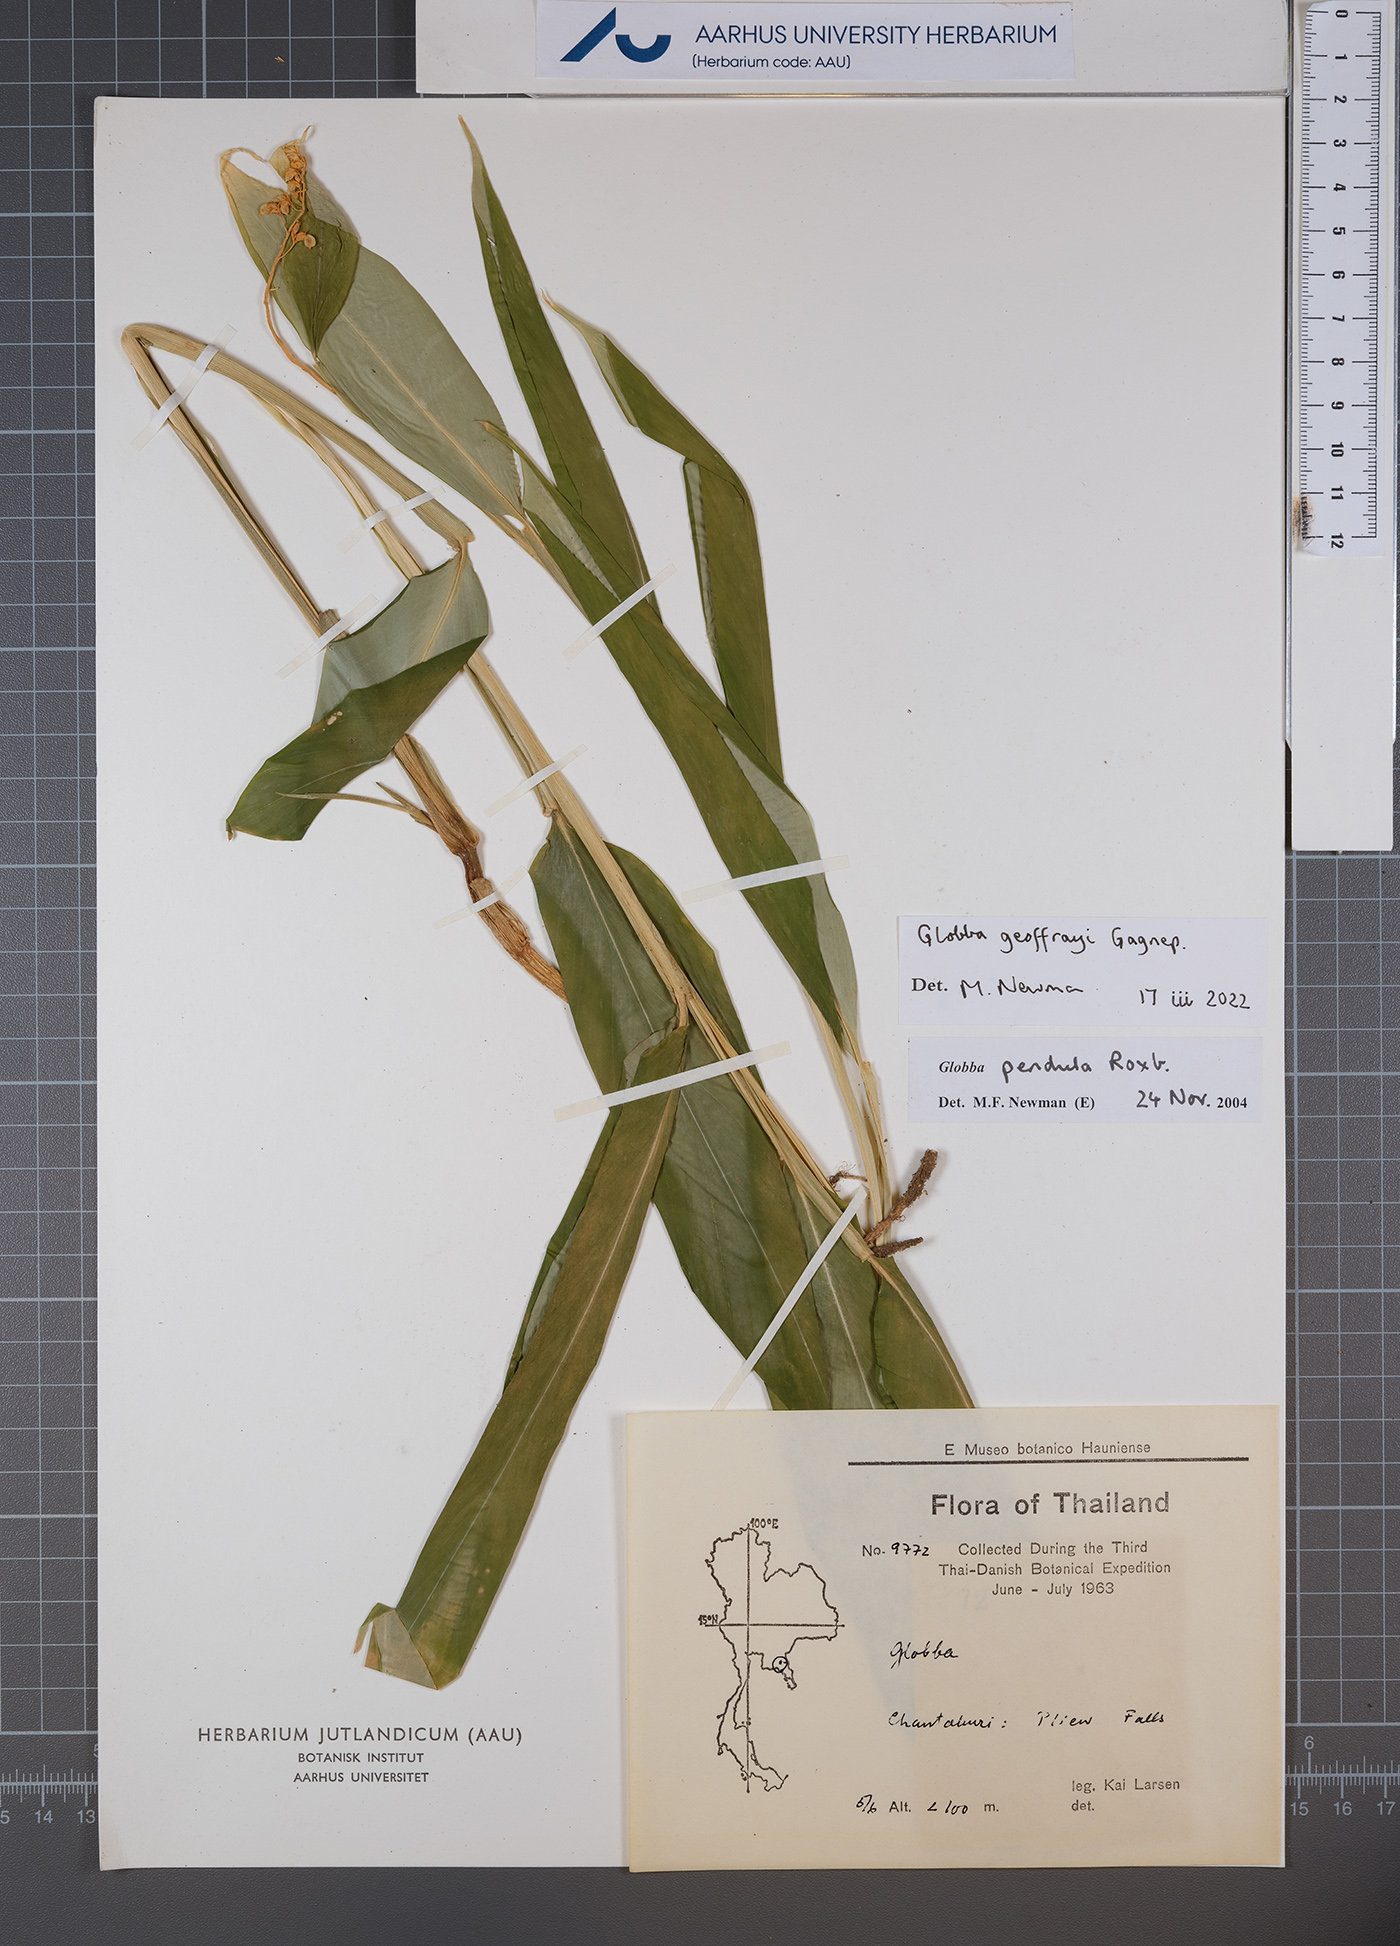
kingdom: Plantae
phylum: Tracheophyta
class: Liliopsida
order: Zingiberales
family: Zingiberaceae
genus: Globba
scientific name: Globba geoffrayi
